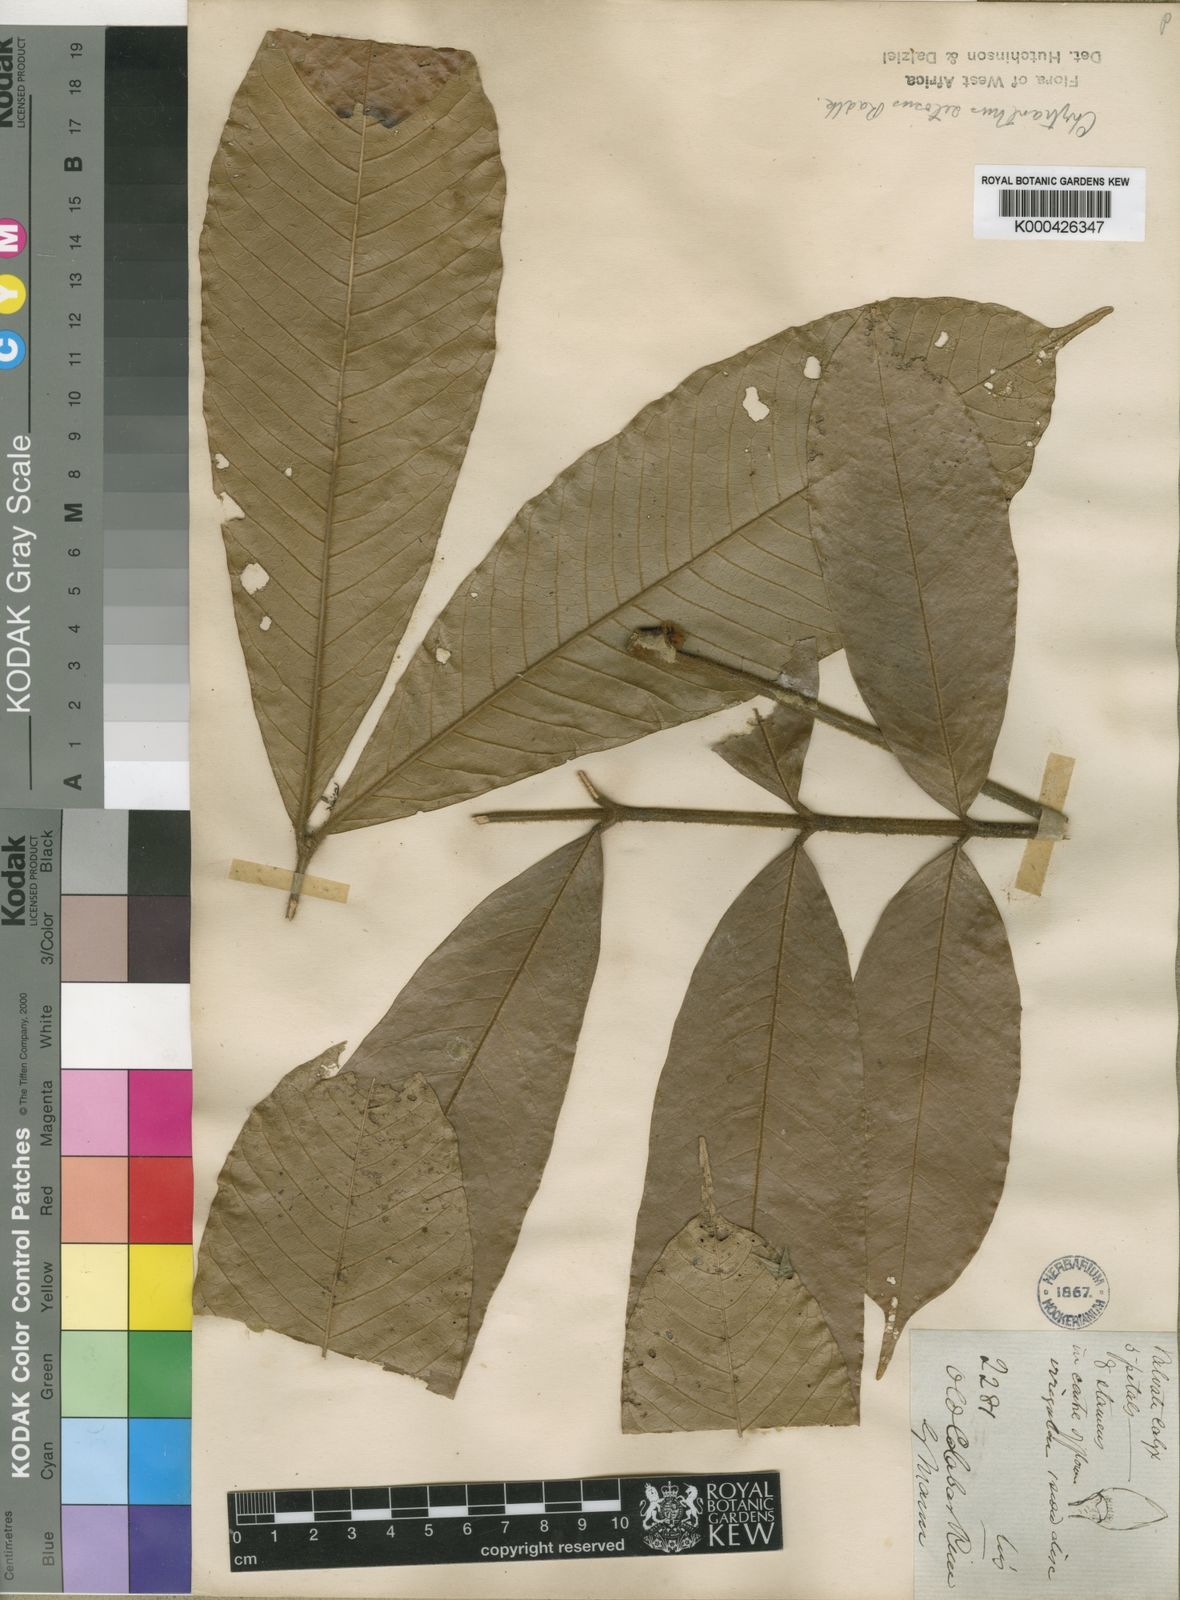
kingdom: Plantae
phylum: Tracheophyta
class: Magnoliopsida
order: Sapindales
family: Sapindaceae
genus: Chytranthus
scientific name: Chytranthus setosus
